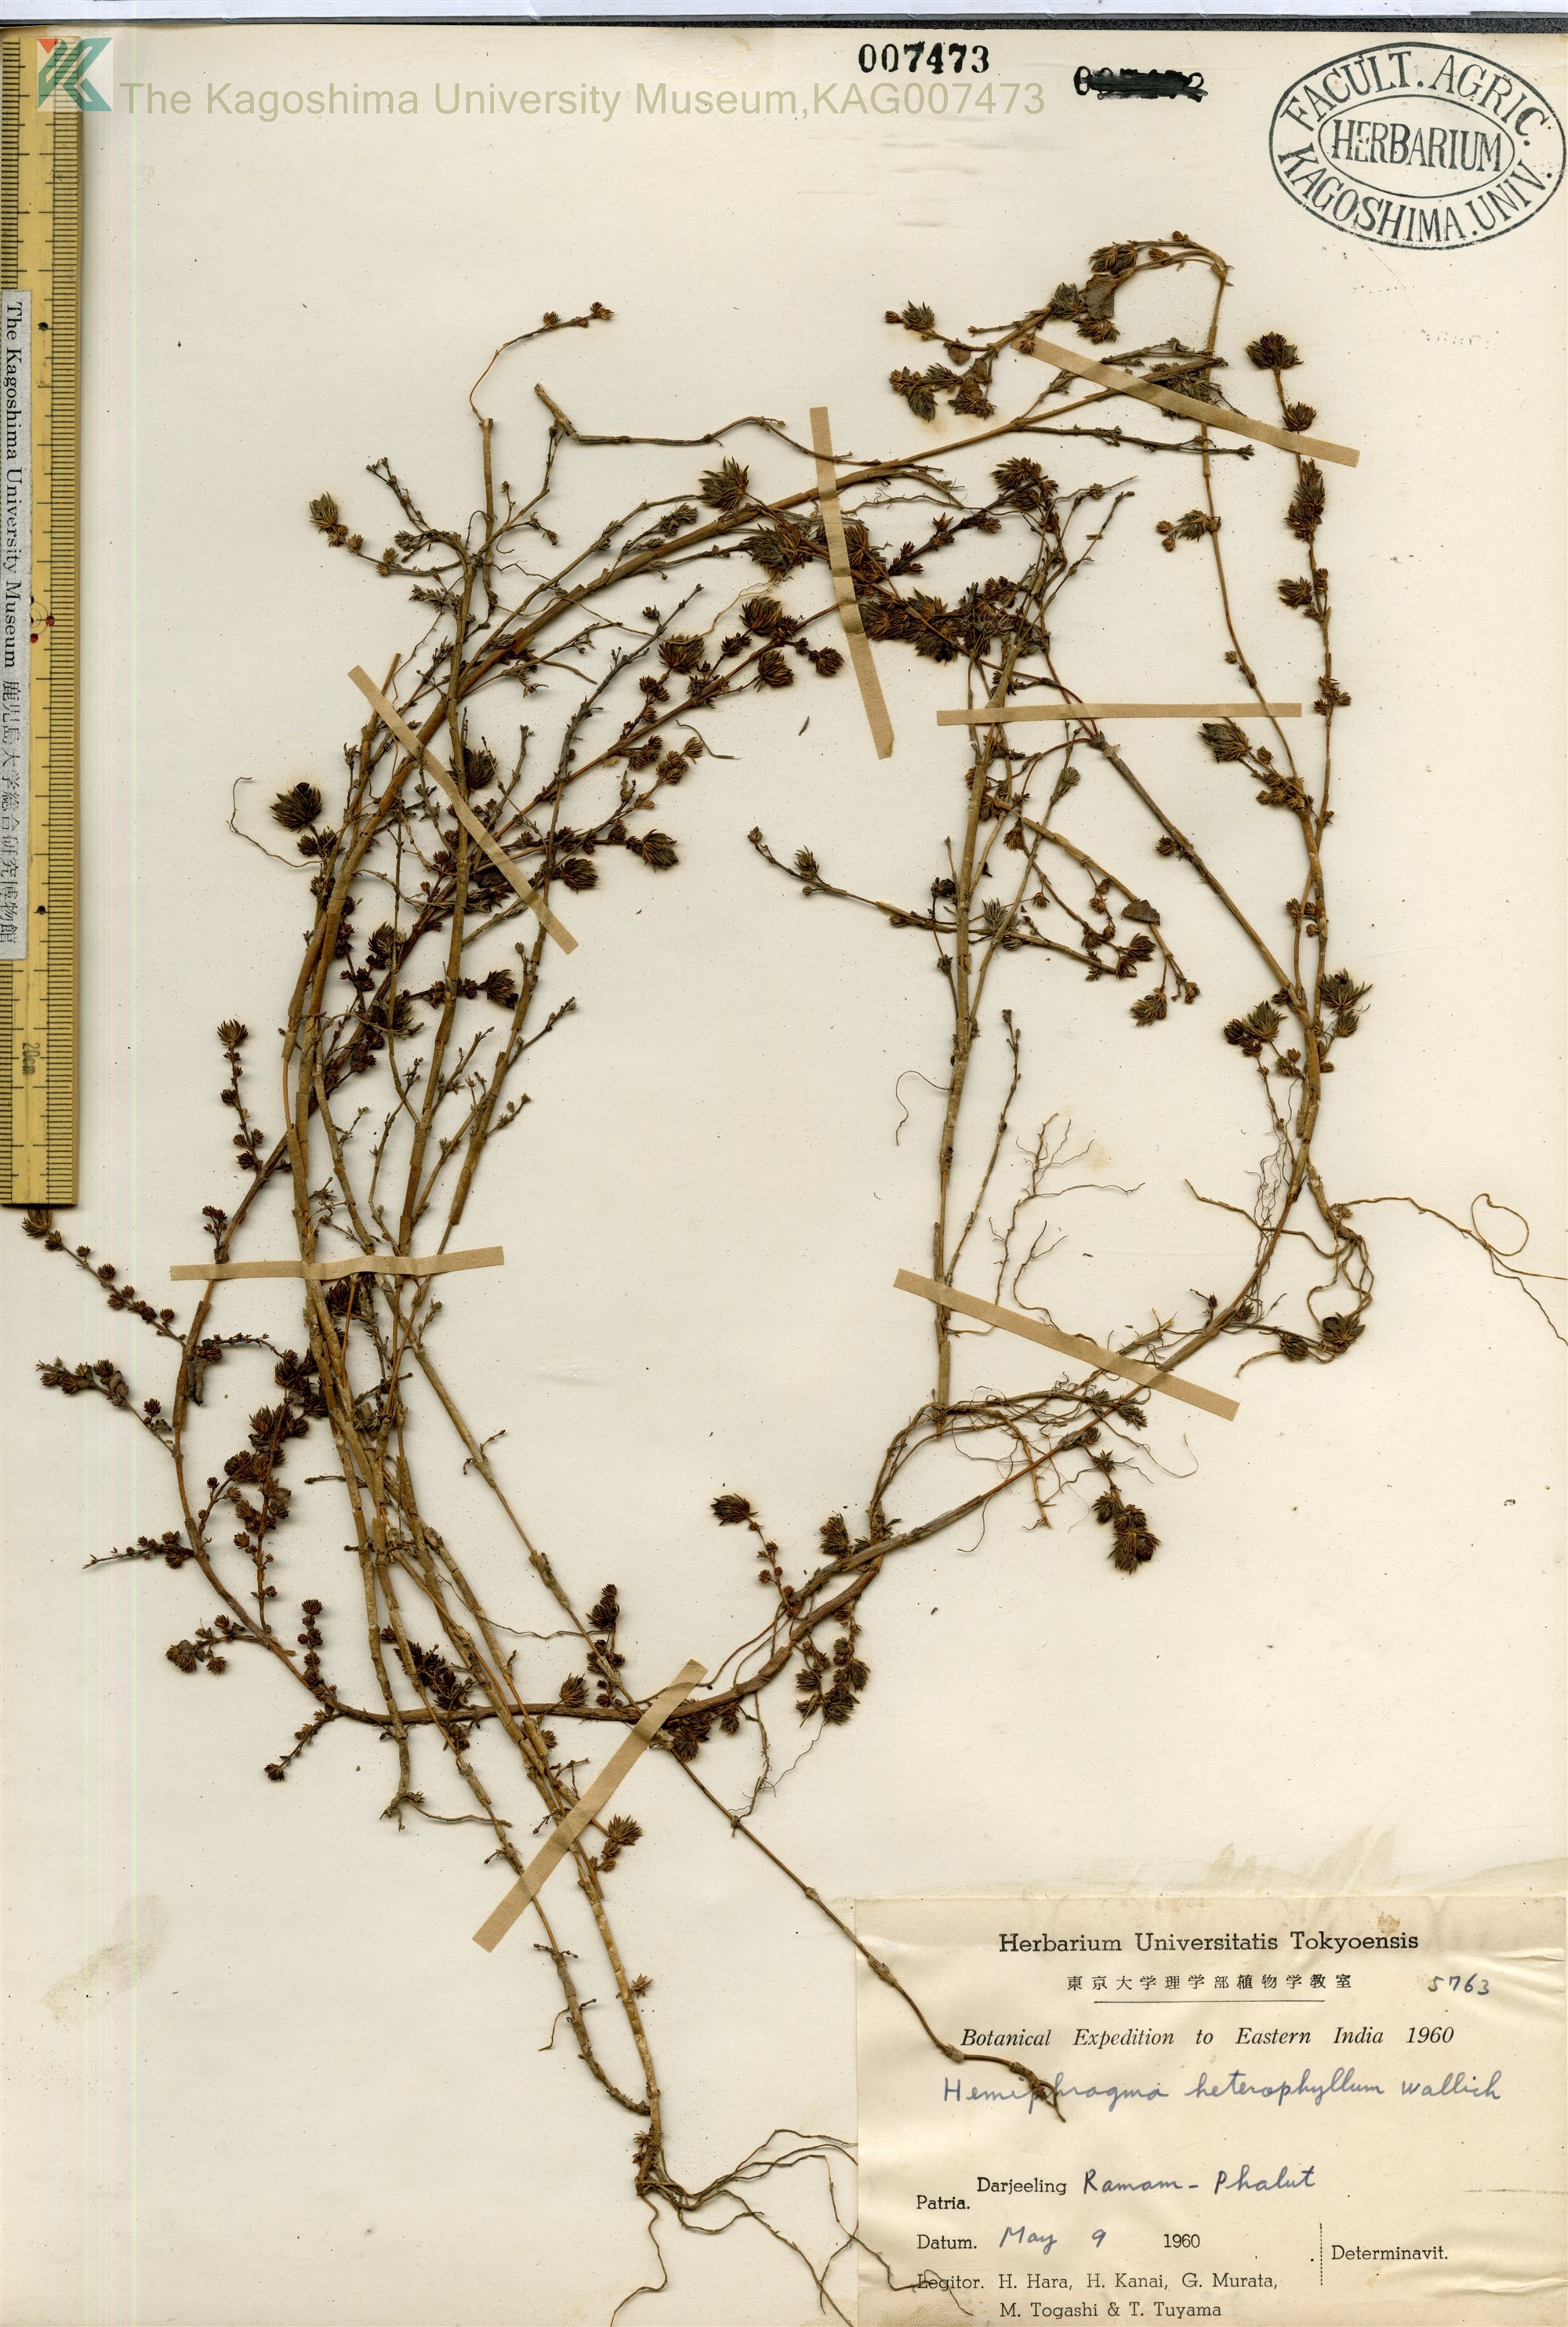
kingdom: Plantae
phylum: Tracheophyta
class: Magnoliopsida
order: Lamiales
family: Plantaginaceae
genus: Hemiphragma
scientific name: Hemiphragma heterophyllum
